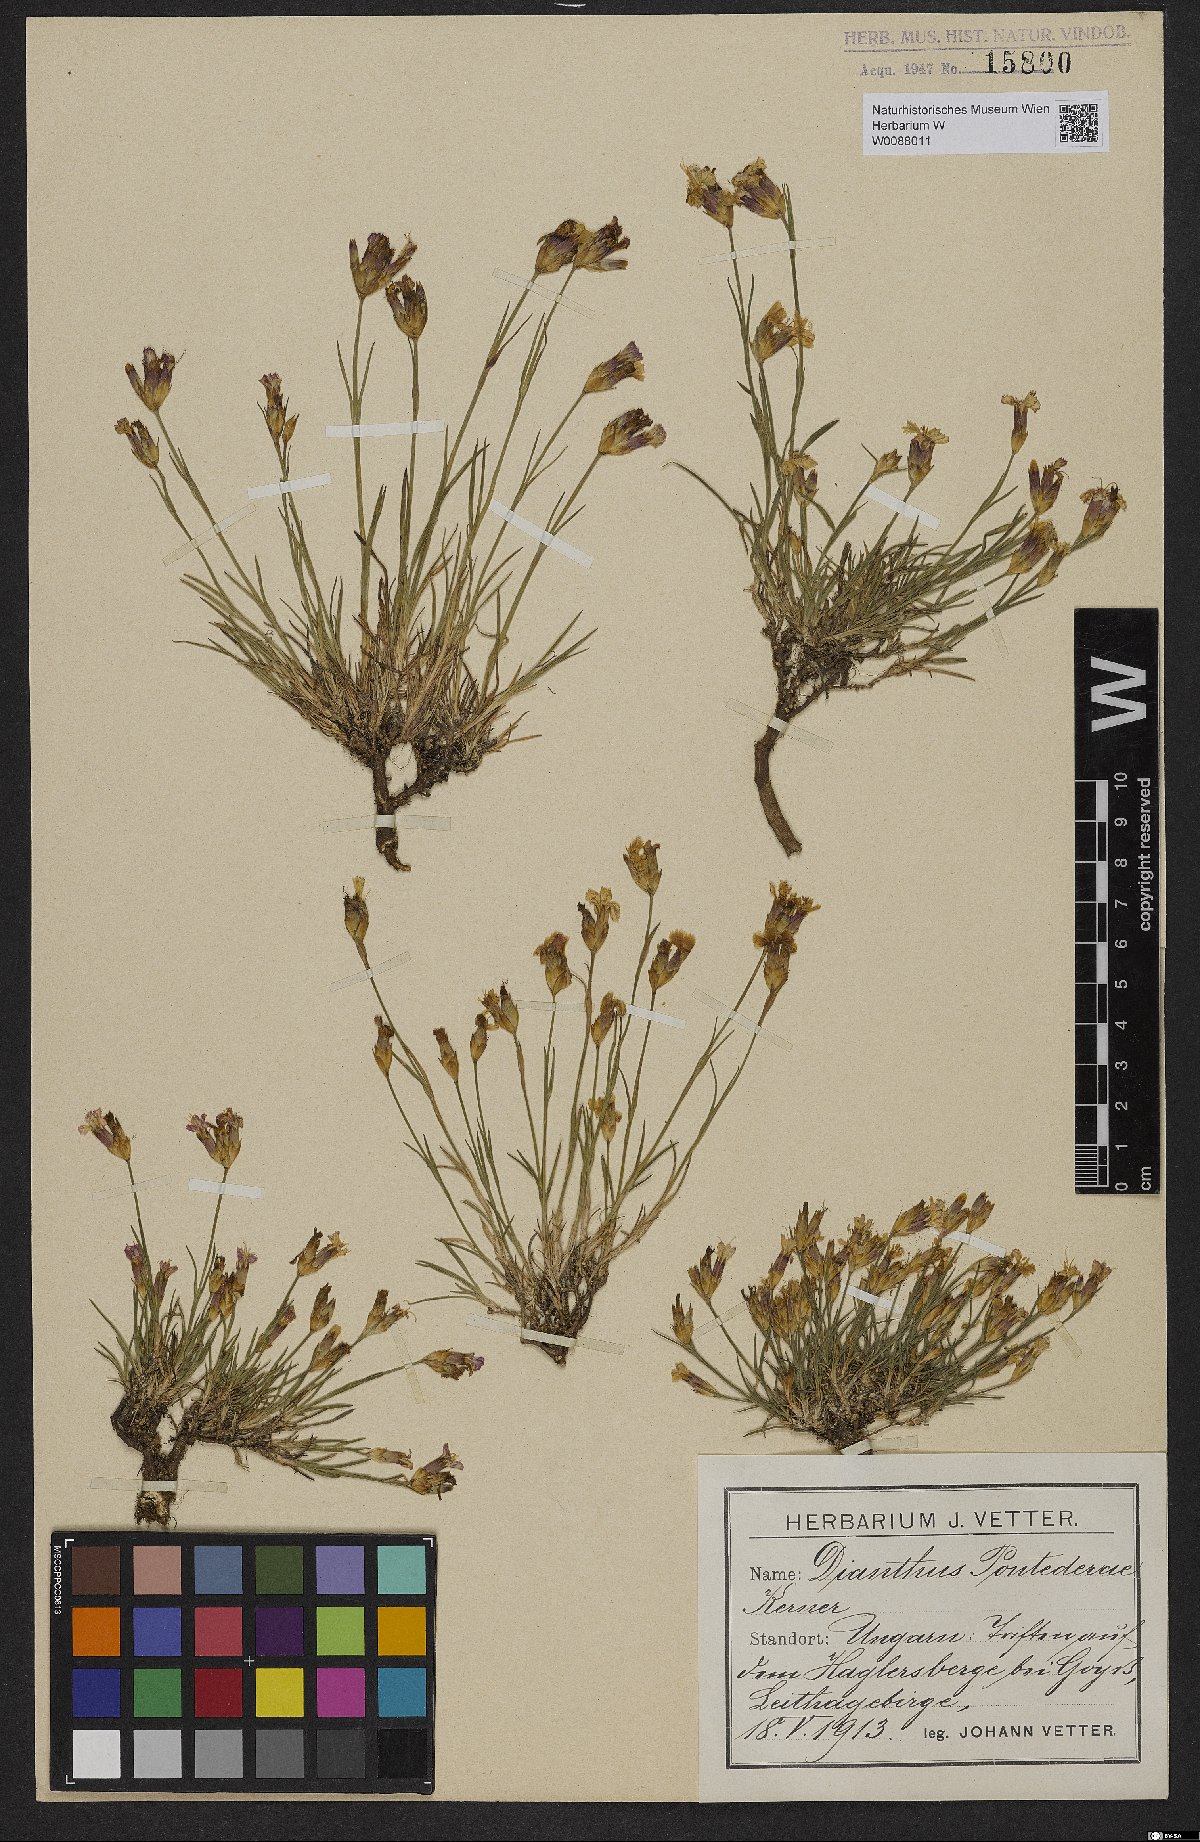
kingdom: Plantae
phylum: Tracheophyta
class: Magnoliopsida
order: Caryophyllales
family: Caryophyllaceae
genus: Dianthus
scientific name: Dianthus pontederae
